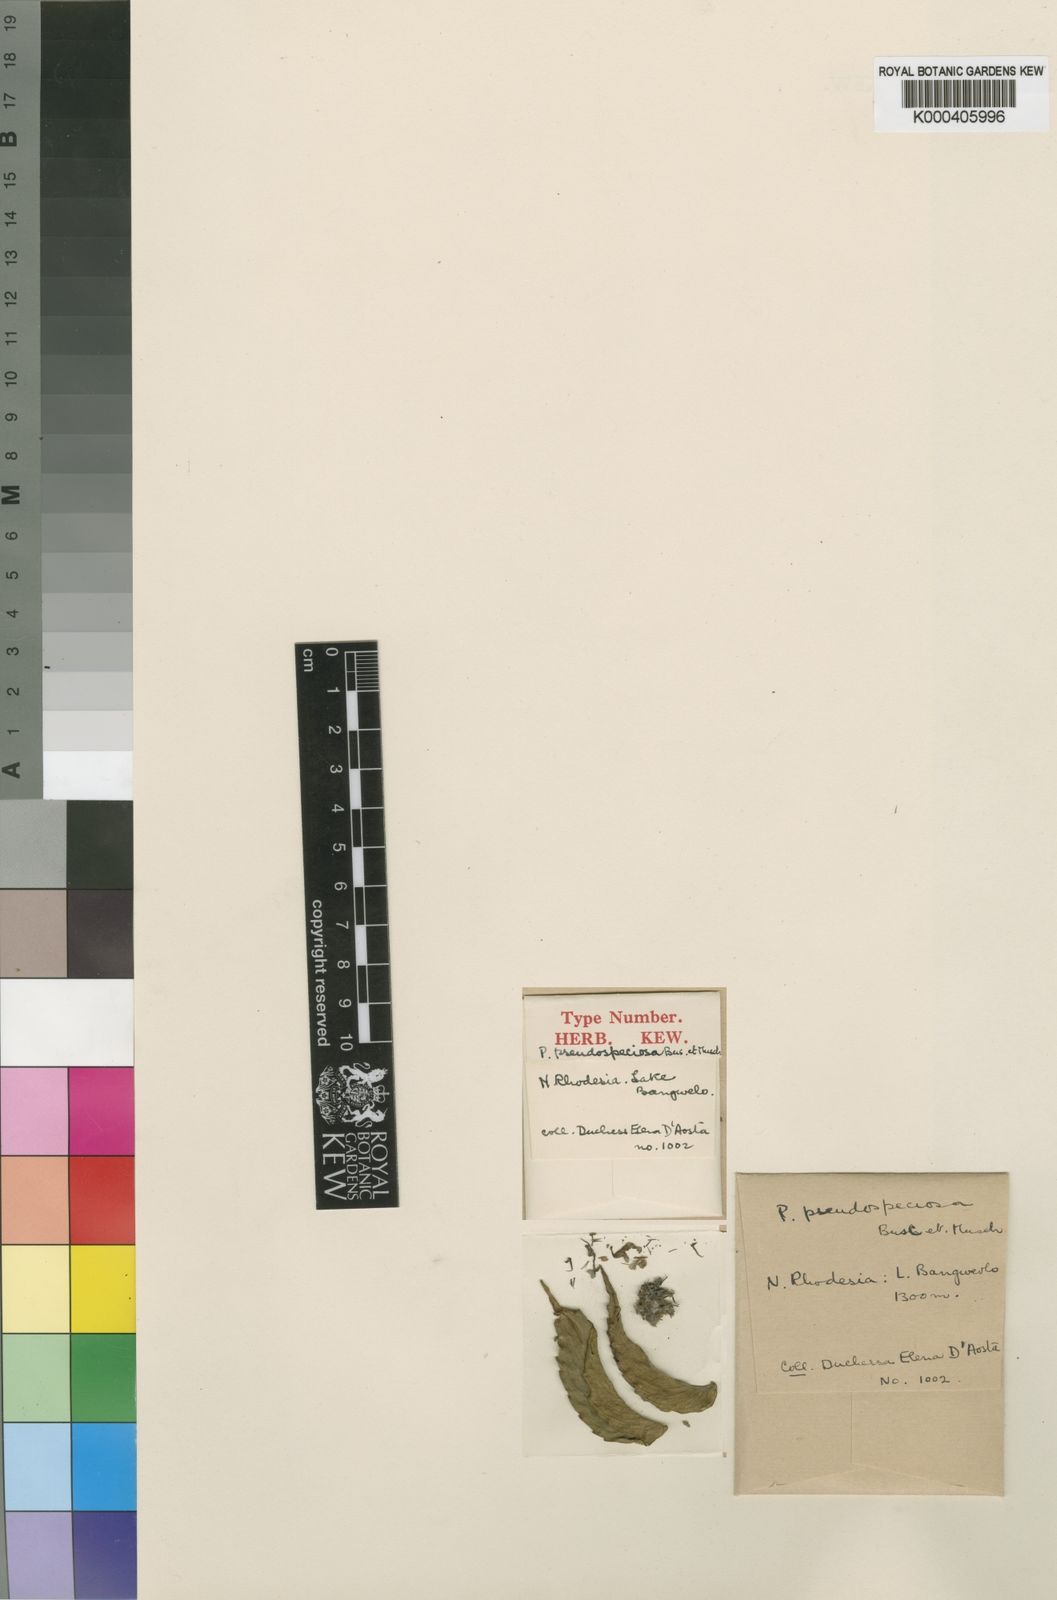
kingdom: Plantae
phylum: Tracheophyta
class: Magnoliopsida
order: Lamiales
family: Lamiaceae
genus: Coleus
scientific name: Coleus pseudospeciosus
